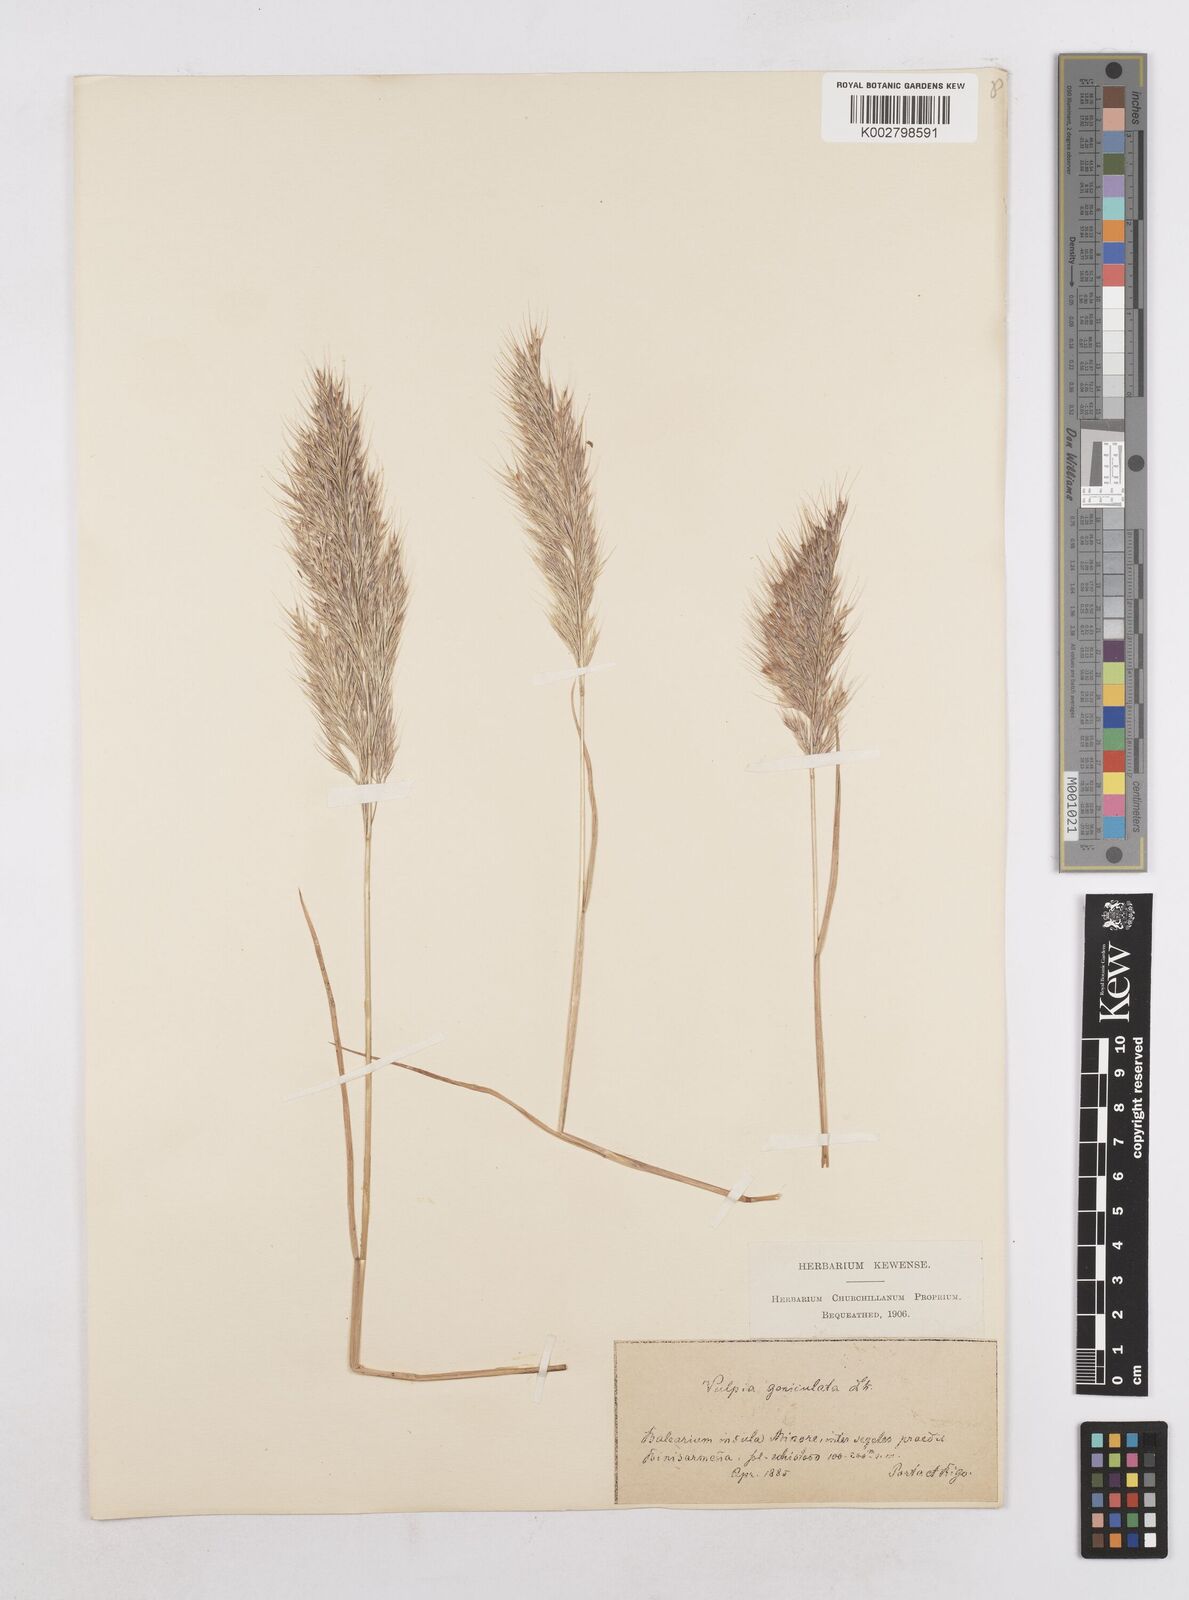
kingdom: Plantae
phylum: Tracheophyta
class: Liliopsida
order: Poales
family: Poaceae
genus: Festuca
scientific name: Festuca geniculata
